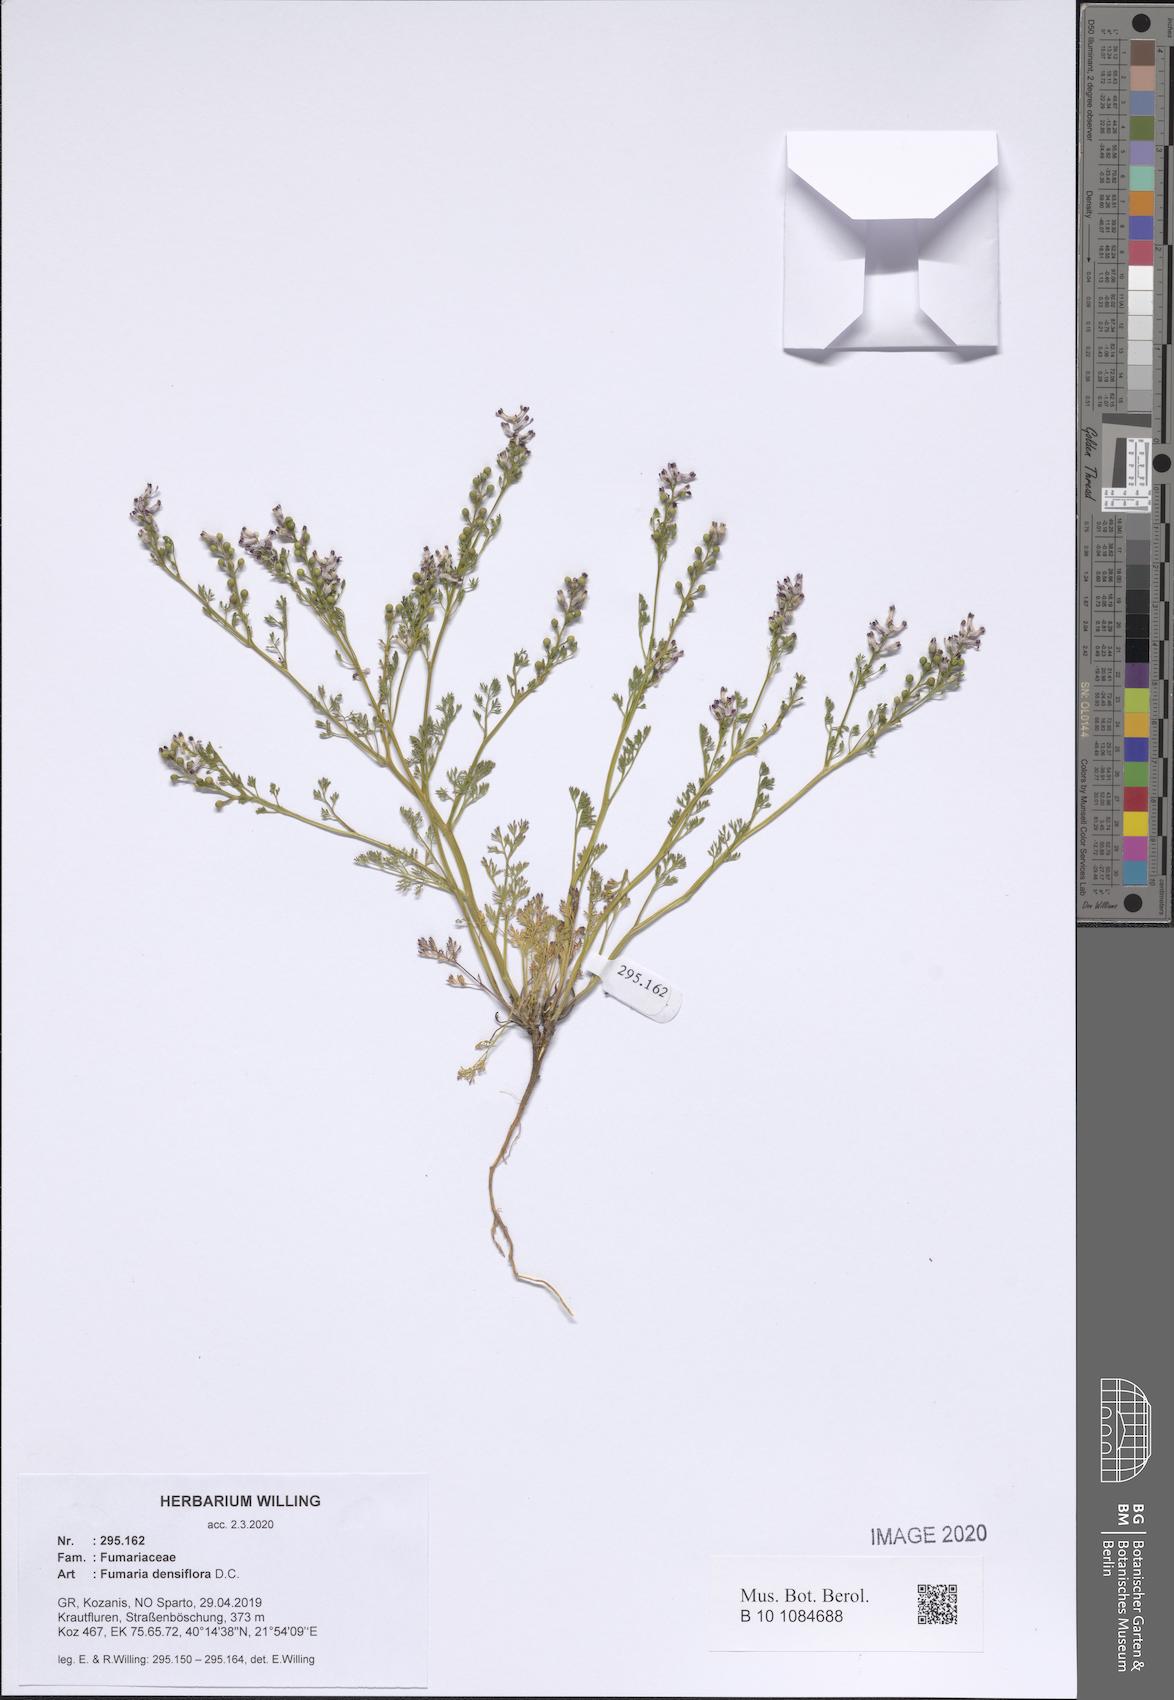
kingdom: Plantae
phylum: Tracheophyta
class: Magnoliopsida
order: Ranunculales
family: Papaveraceae
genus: Fumaria
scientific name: Fumaria densiflora
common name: Dense-flowered fumitory
